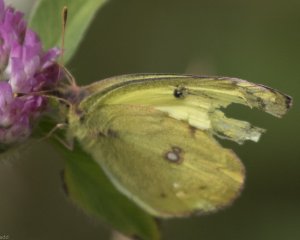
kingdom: Animalia
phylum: Arthropoda
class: Insecta
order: Lepidoptera
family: Pieridae
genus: Colias
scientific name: Colias philodice
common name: Clouded Sulphur
